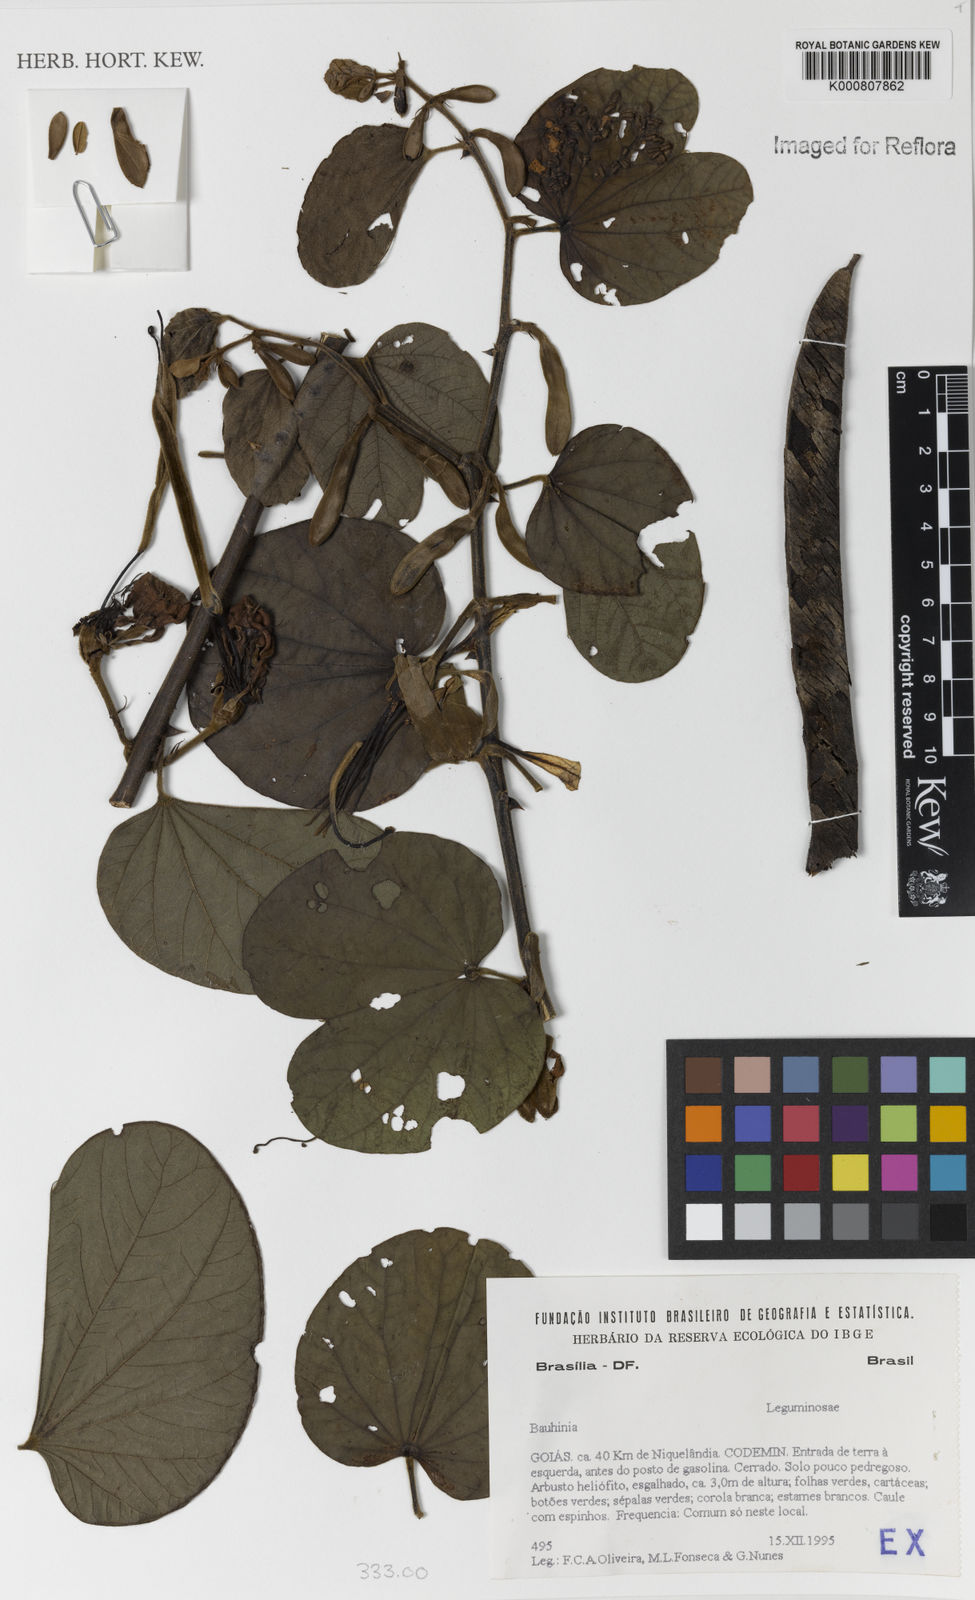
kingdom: Plantae
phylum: Tracheophyta
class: Magnoliopsida
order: Fabales
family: Fabaceae
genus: Bauhinia
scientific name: Bauhinia
